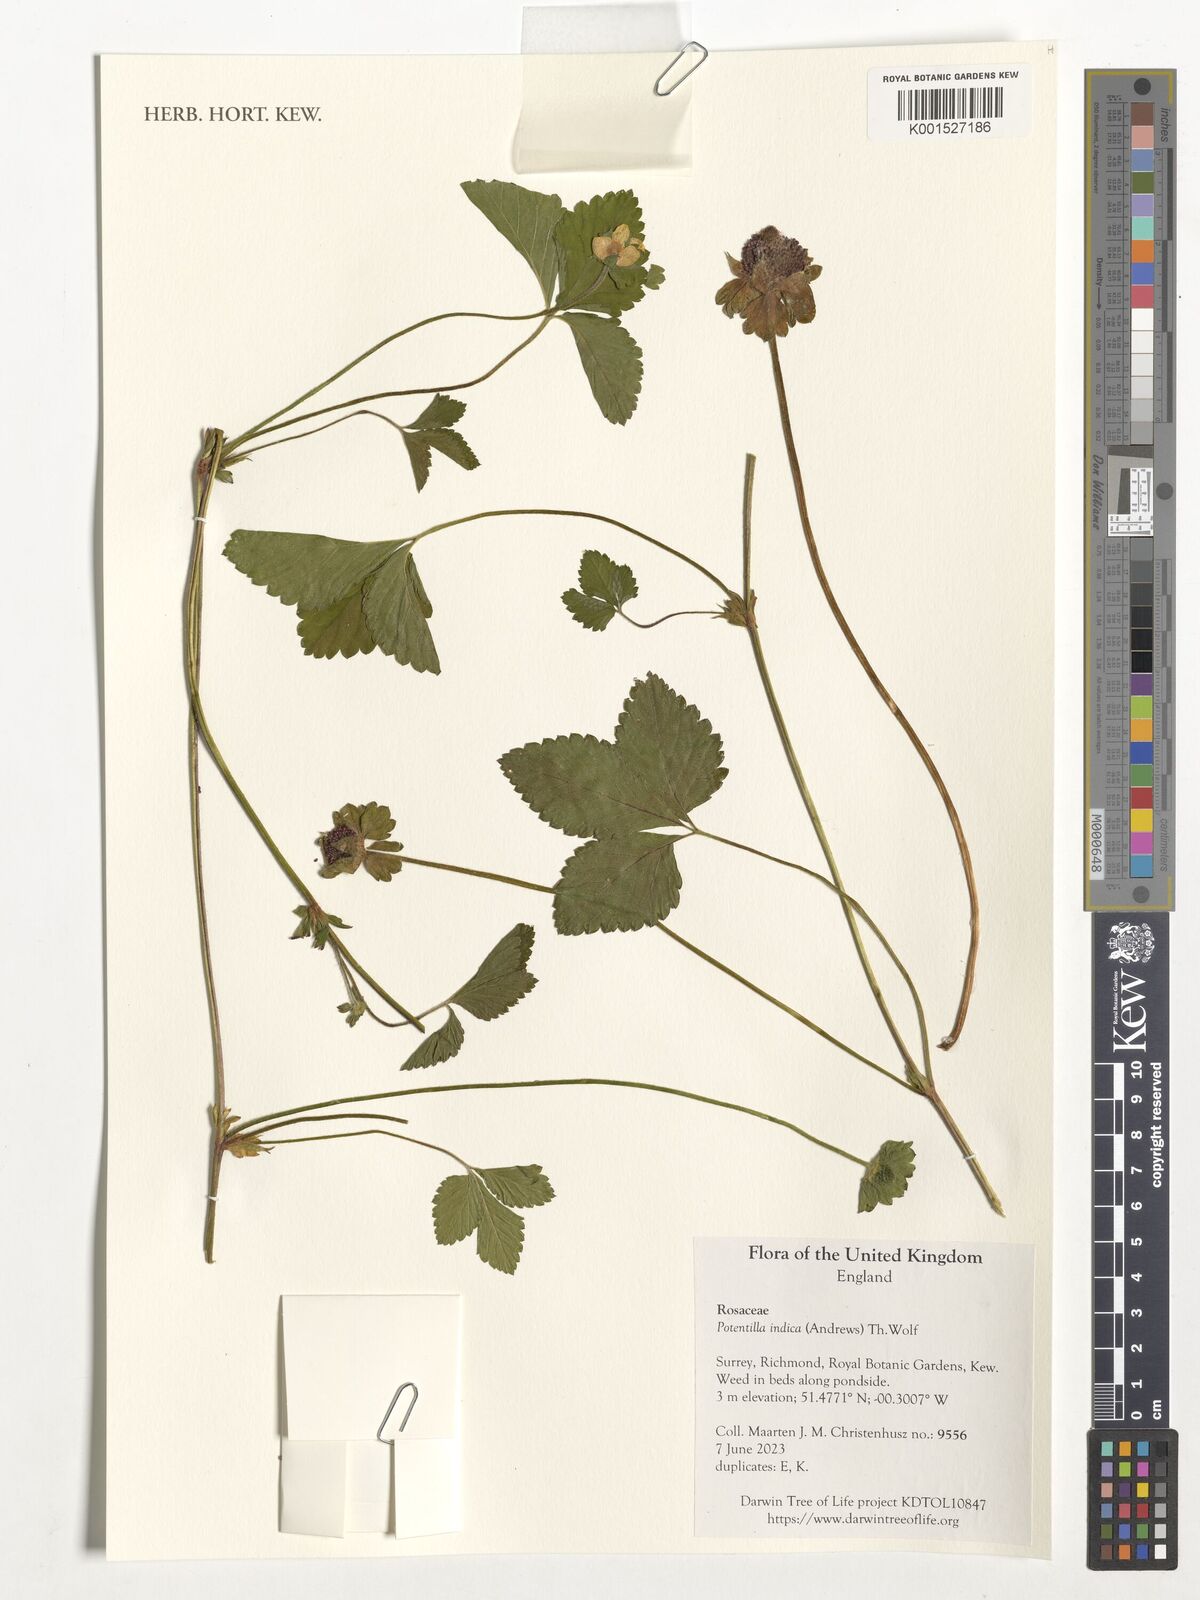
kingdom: Plantae
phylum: Tracheophyta
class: Magnoliopsida
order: Rosales
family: Rosaceae
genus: Potentilla
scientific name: Potentilla indica
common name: Yellow-flowered strawberry
